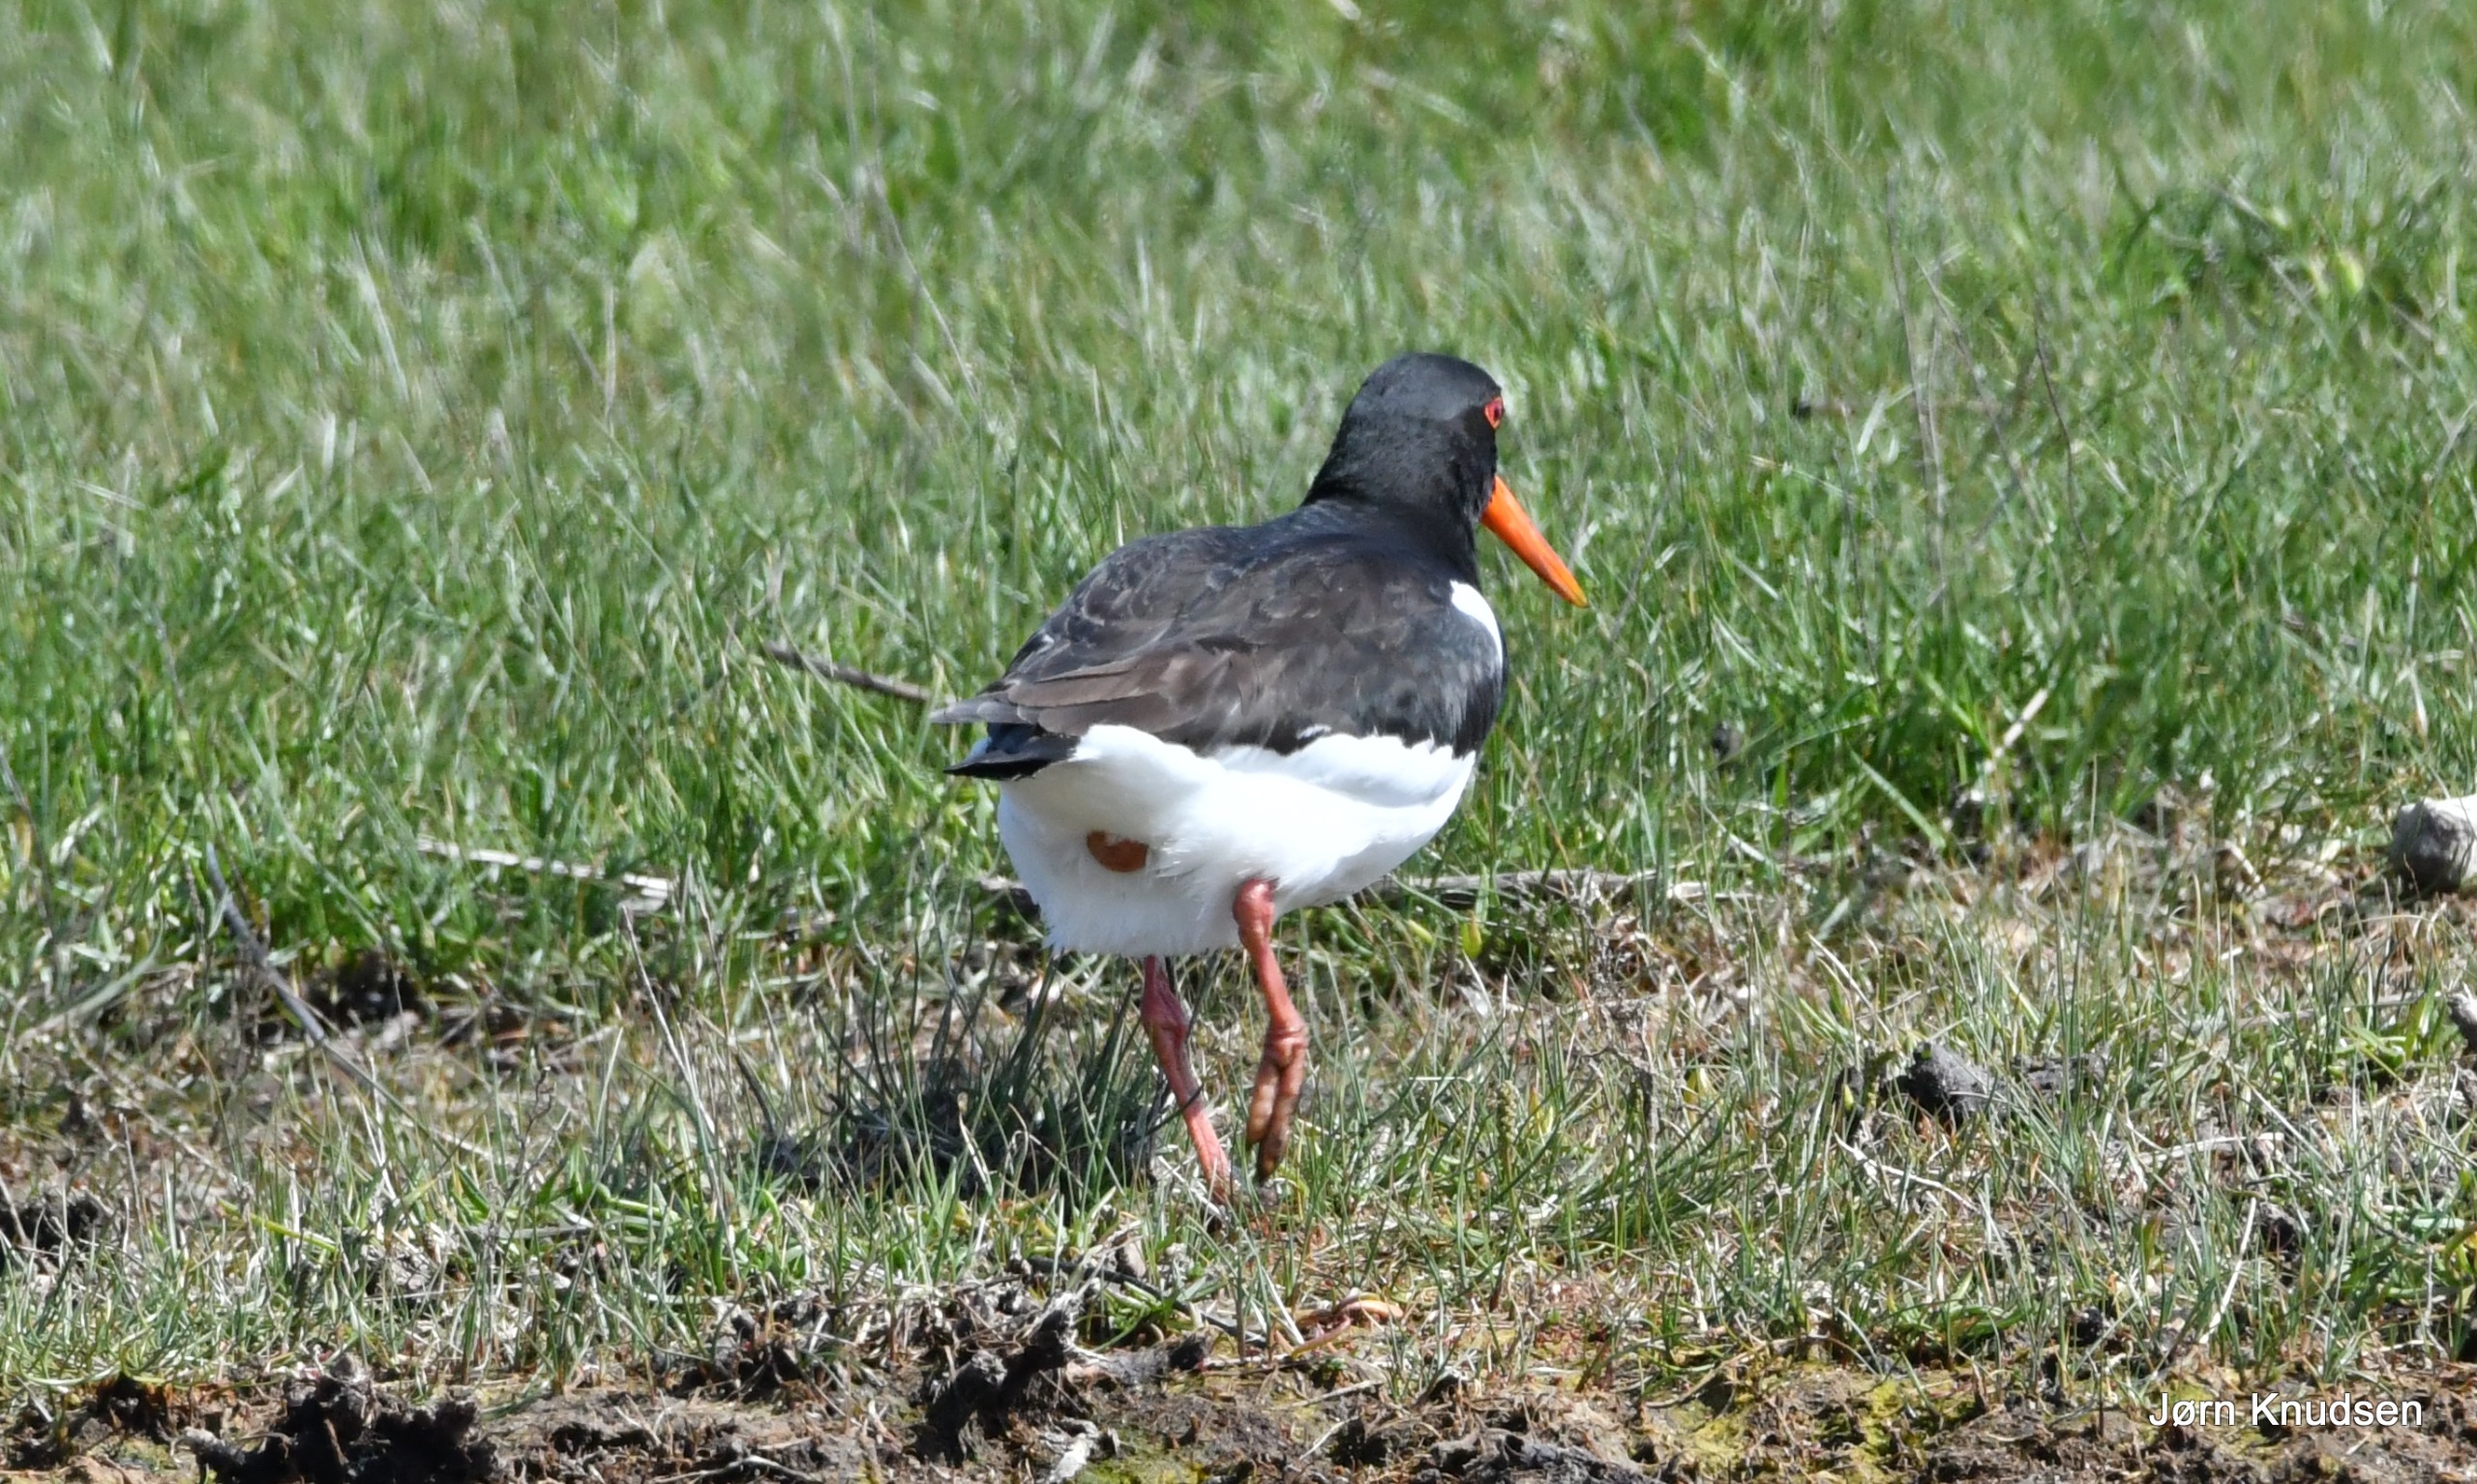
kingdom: Animalia
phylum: Chordata
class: Aves
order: Charadriiformes
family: Haematopodidae
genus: Haematopus
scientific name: Haematopus ostralegus
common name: Strandskade
